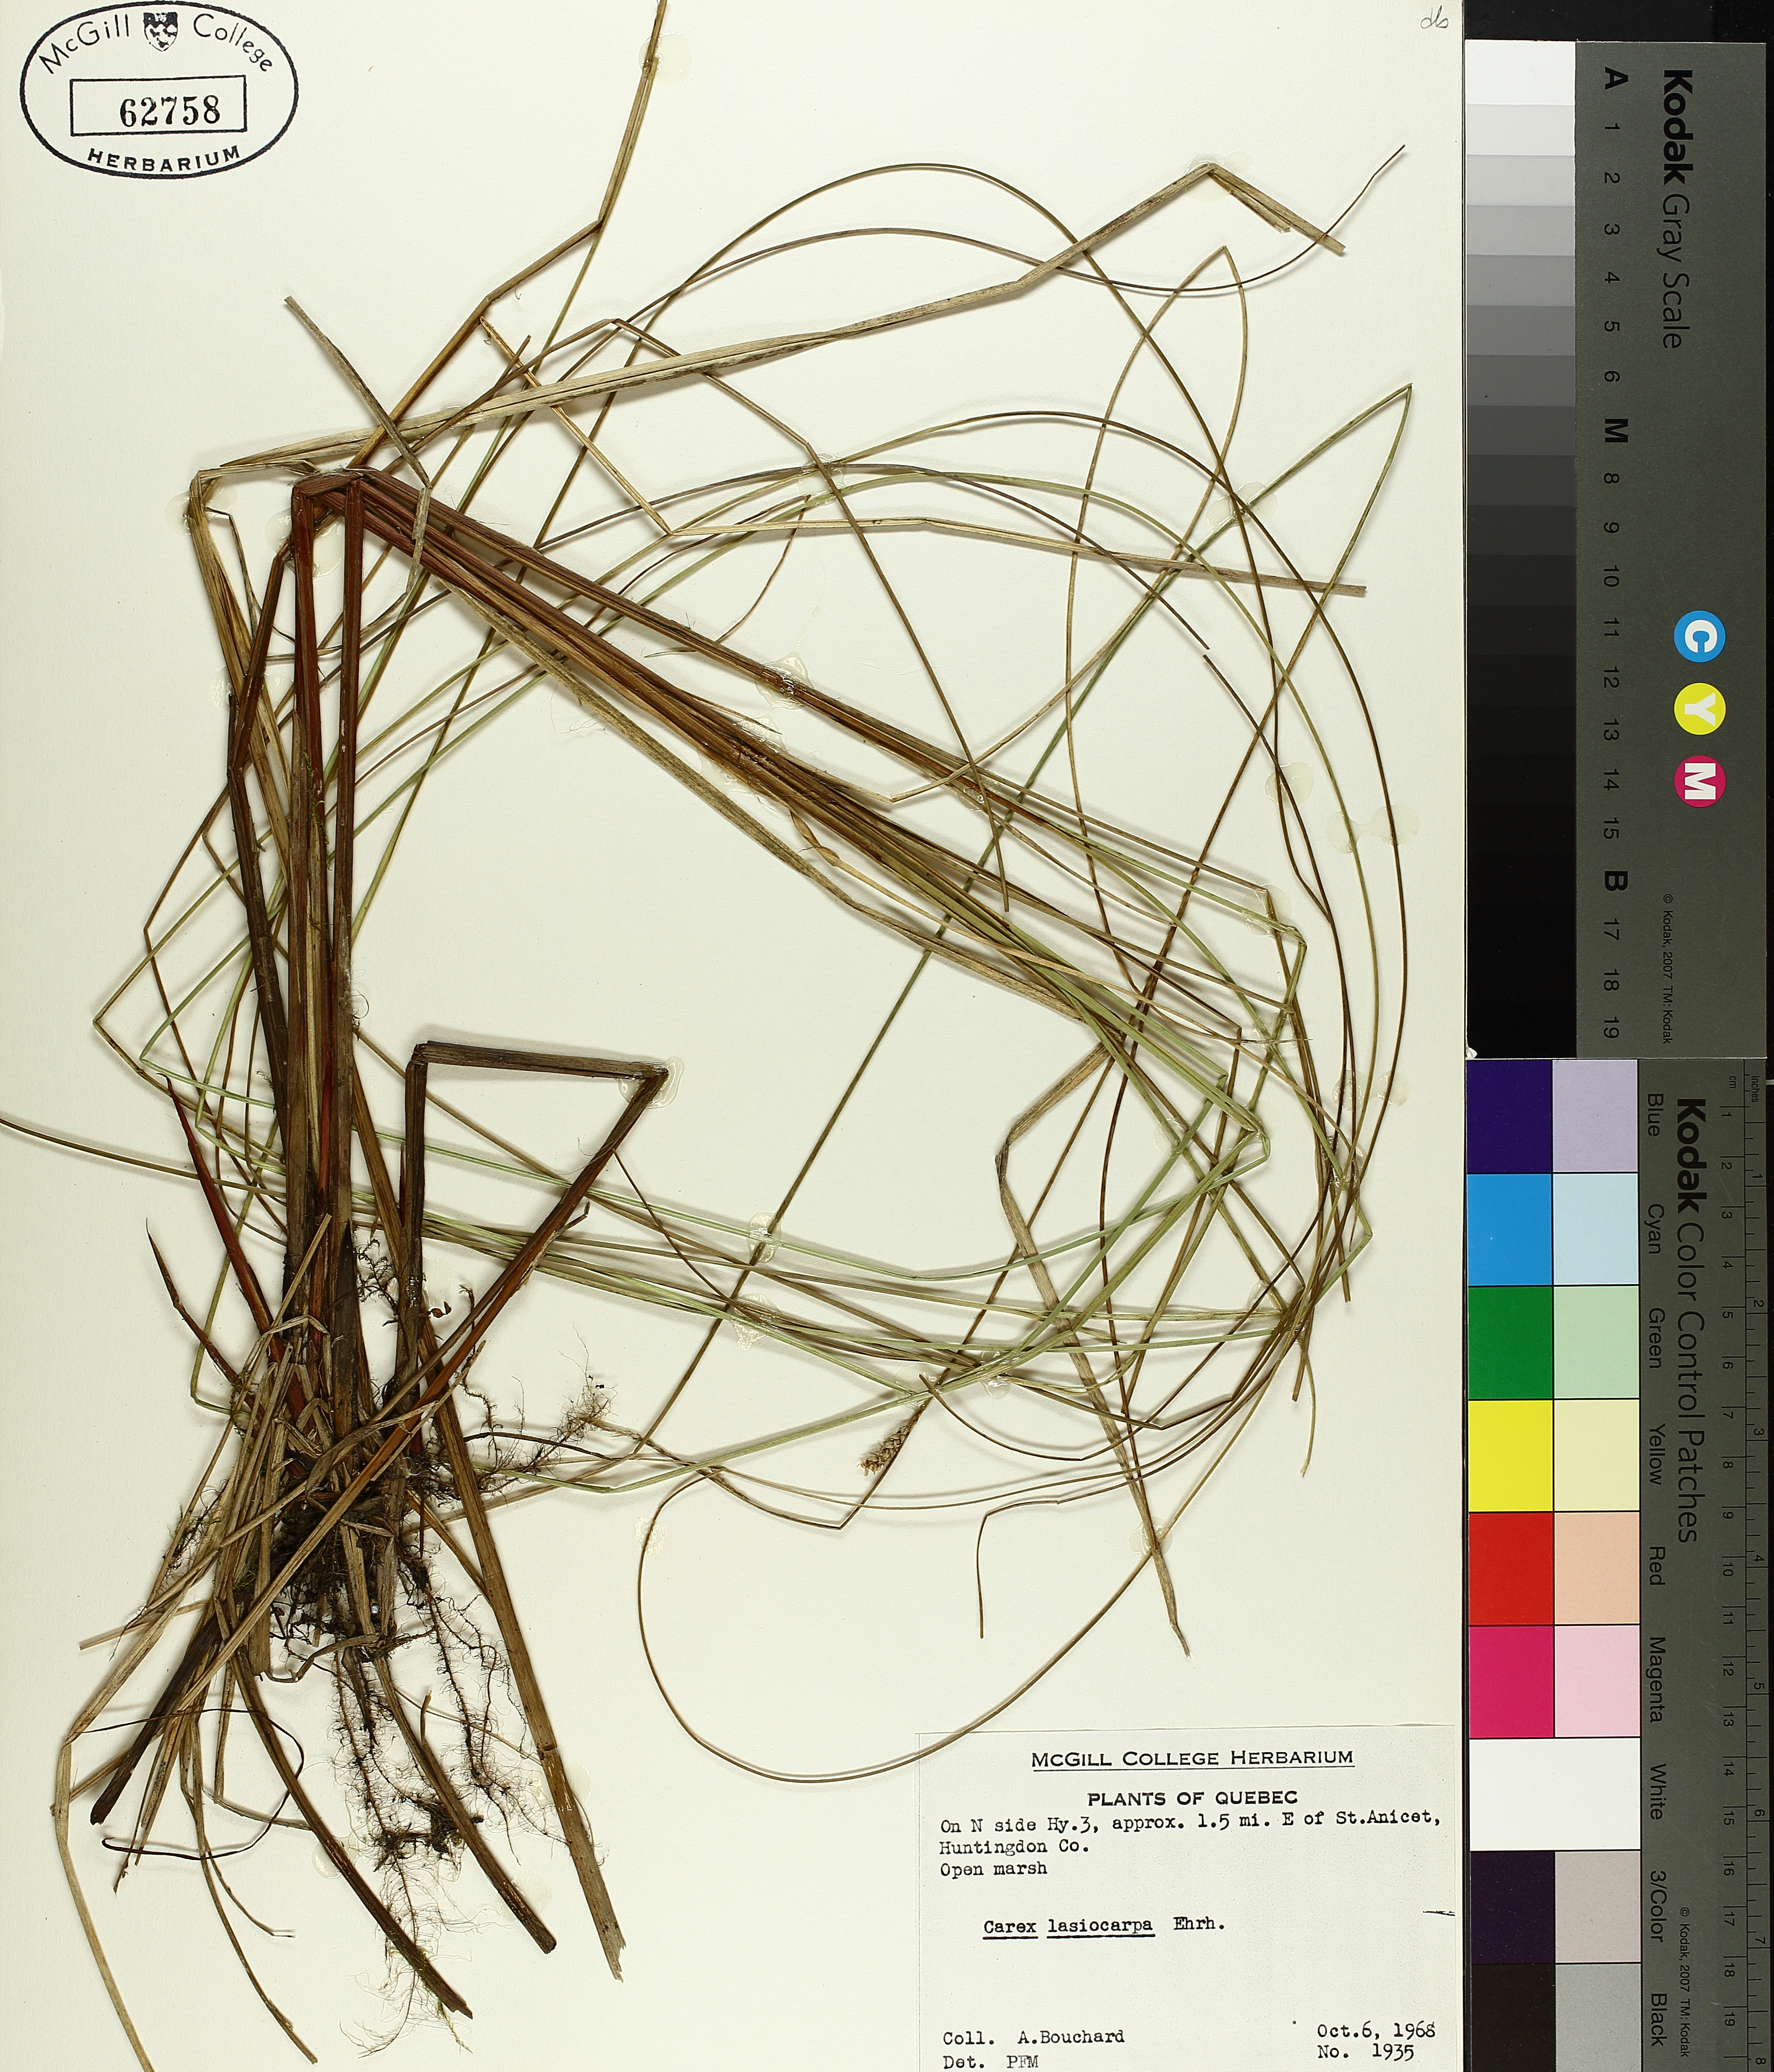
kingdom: Plantae
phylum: Tracheophyta
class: Liliopsida
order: Poales
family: Cyperaceae
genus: Carex
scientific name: Carex lasiocarpa
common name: Slender sedge
